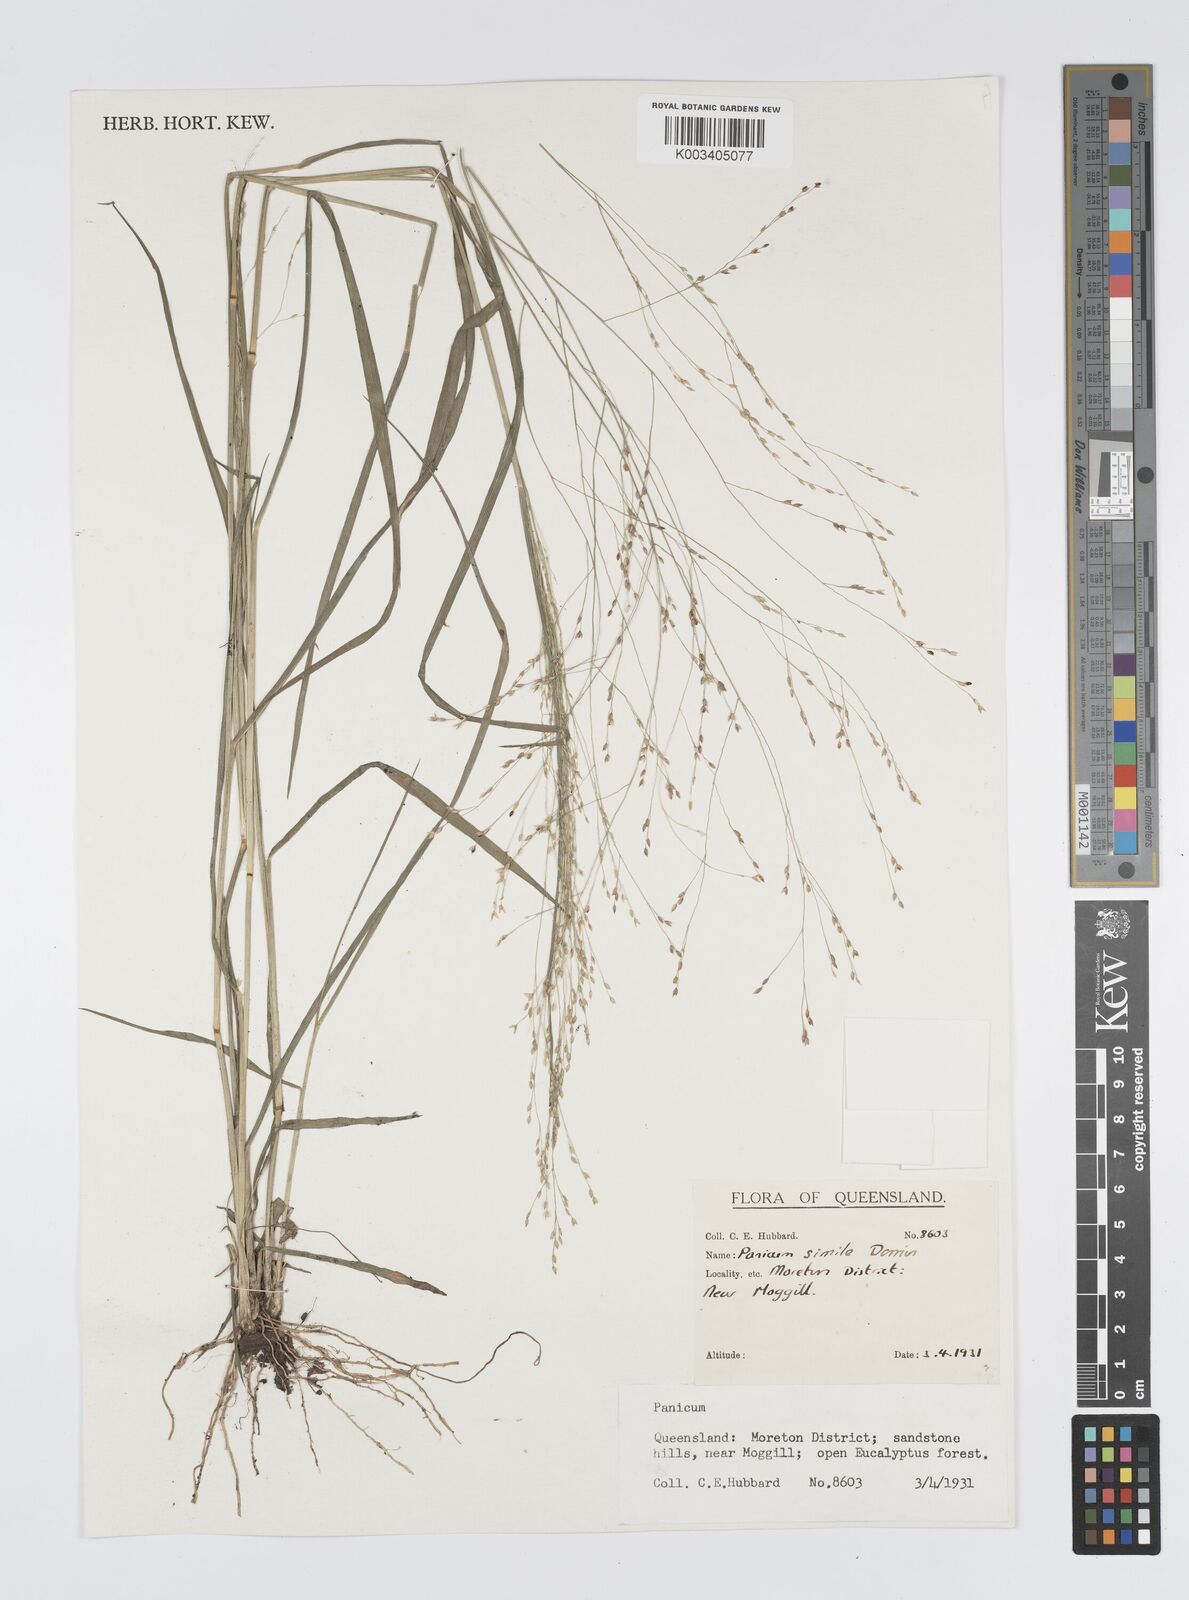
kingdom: Plantae
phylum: Tracheophyta
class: Liliopsida
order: Poales
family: Poaceae
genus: Panicum
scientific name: Panicum simile
